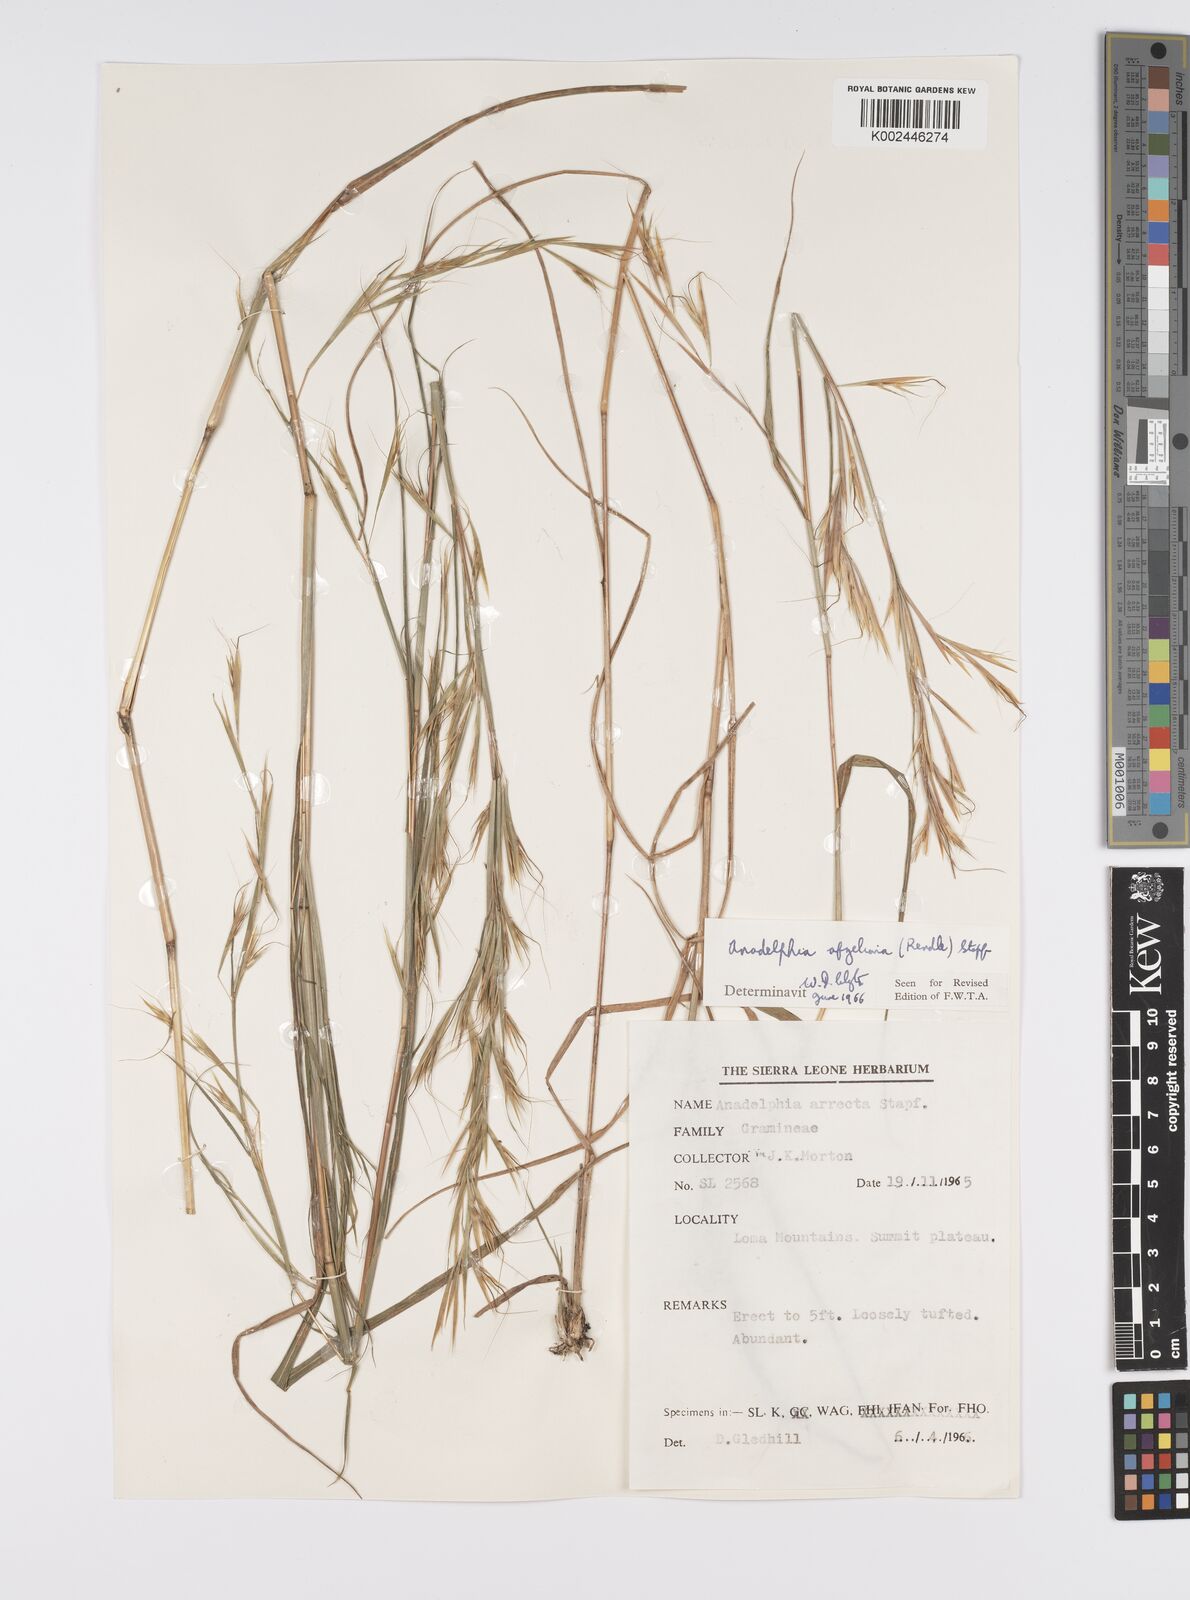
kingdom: Plantae
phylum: Tracheophyta
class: Liliopsida
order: Poales
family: Poaceae
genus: Anadelphia
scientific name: Anadelphia afzeliana
